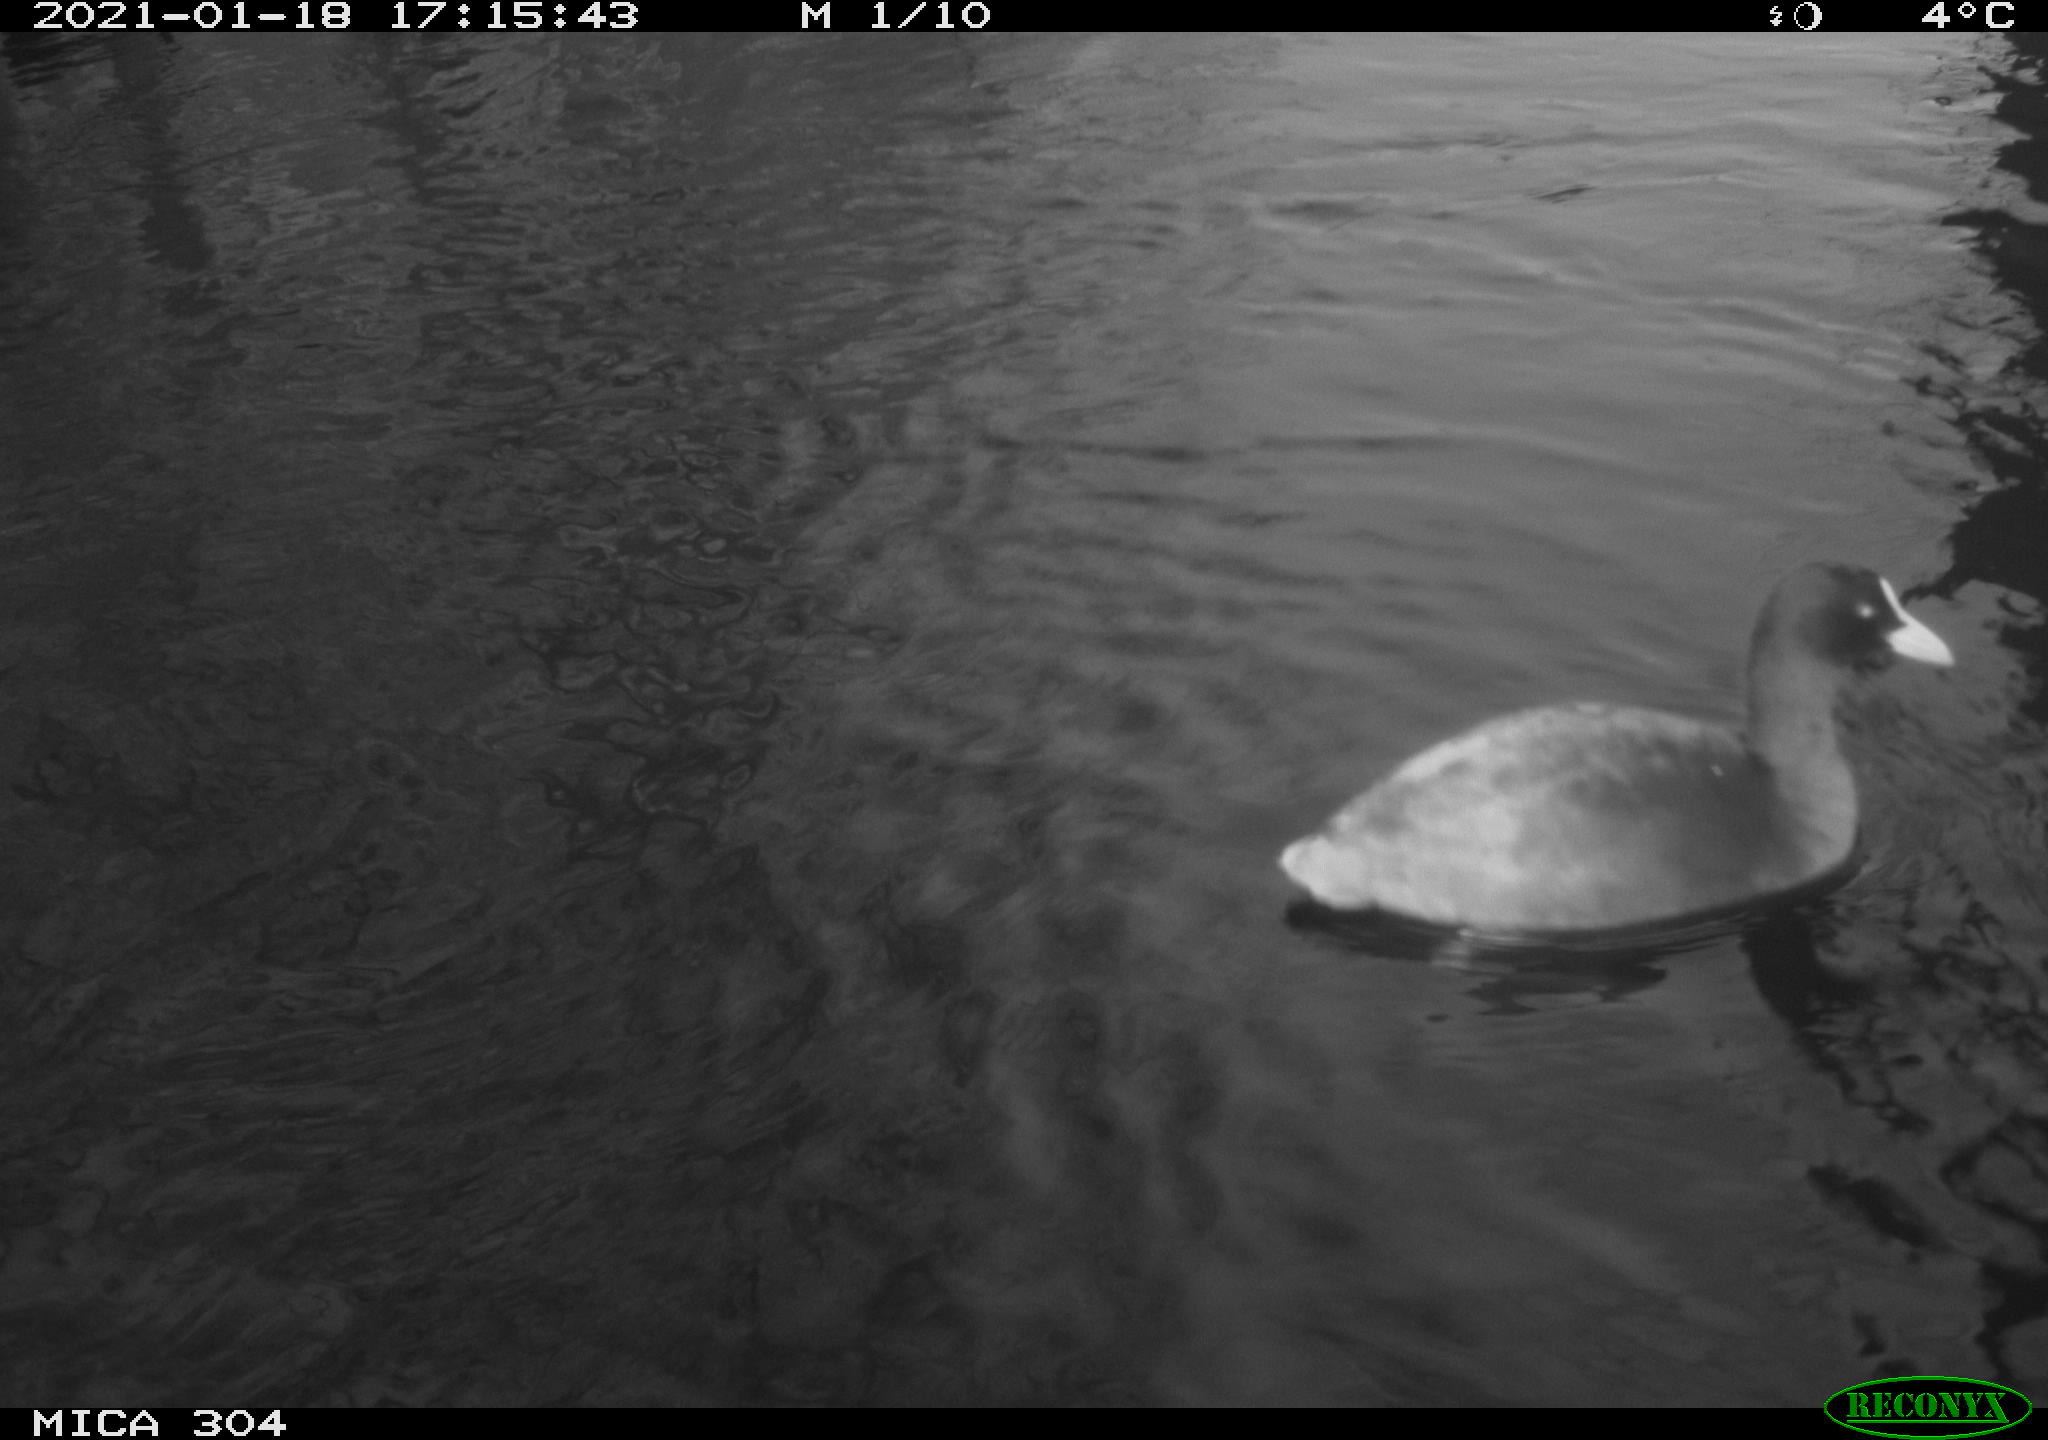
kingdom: Animalia
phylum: Chordata
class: Aves
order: Gruiformes
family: Rallidae
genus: Fulica
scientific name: Fulica atra
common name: Eurasian coot
